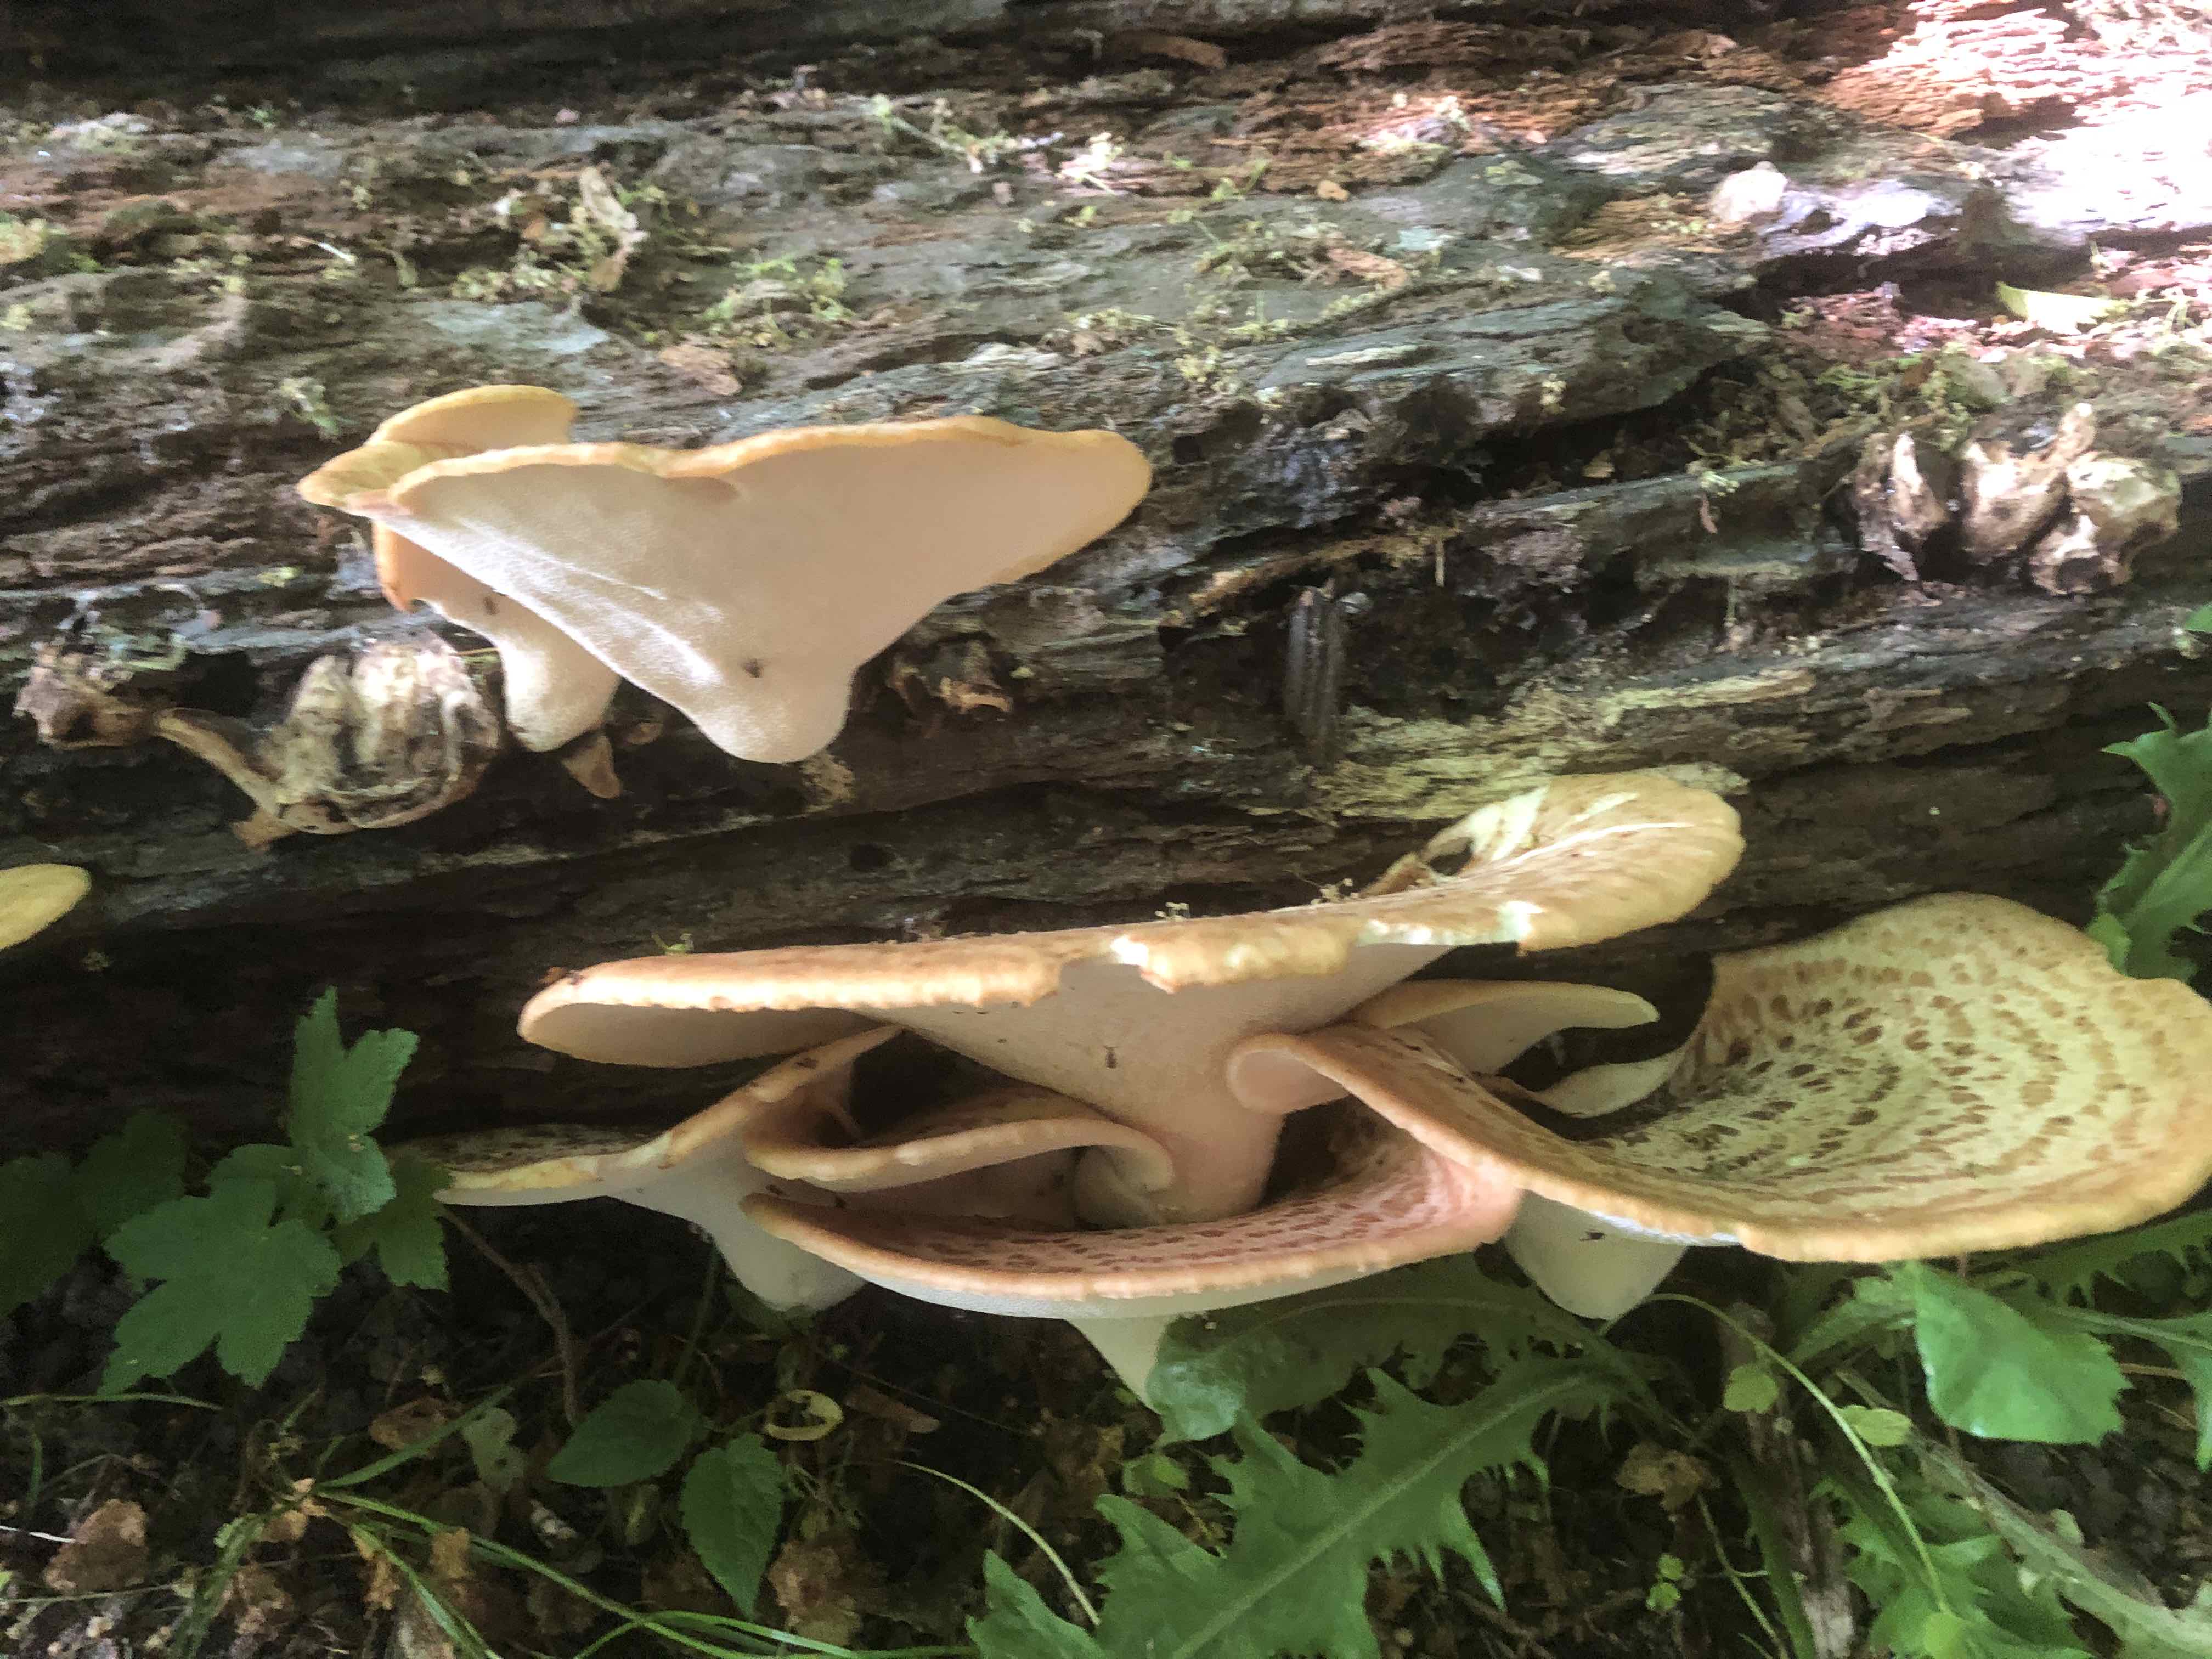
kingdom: Fungi
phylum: Basidiomycota
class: Agaricomycetes
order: Polyporales
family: Polyporaceae
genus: Cerioporus
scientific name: Cerioporus squamosus
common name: skællet stilkporesvamp
